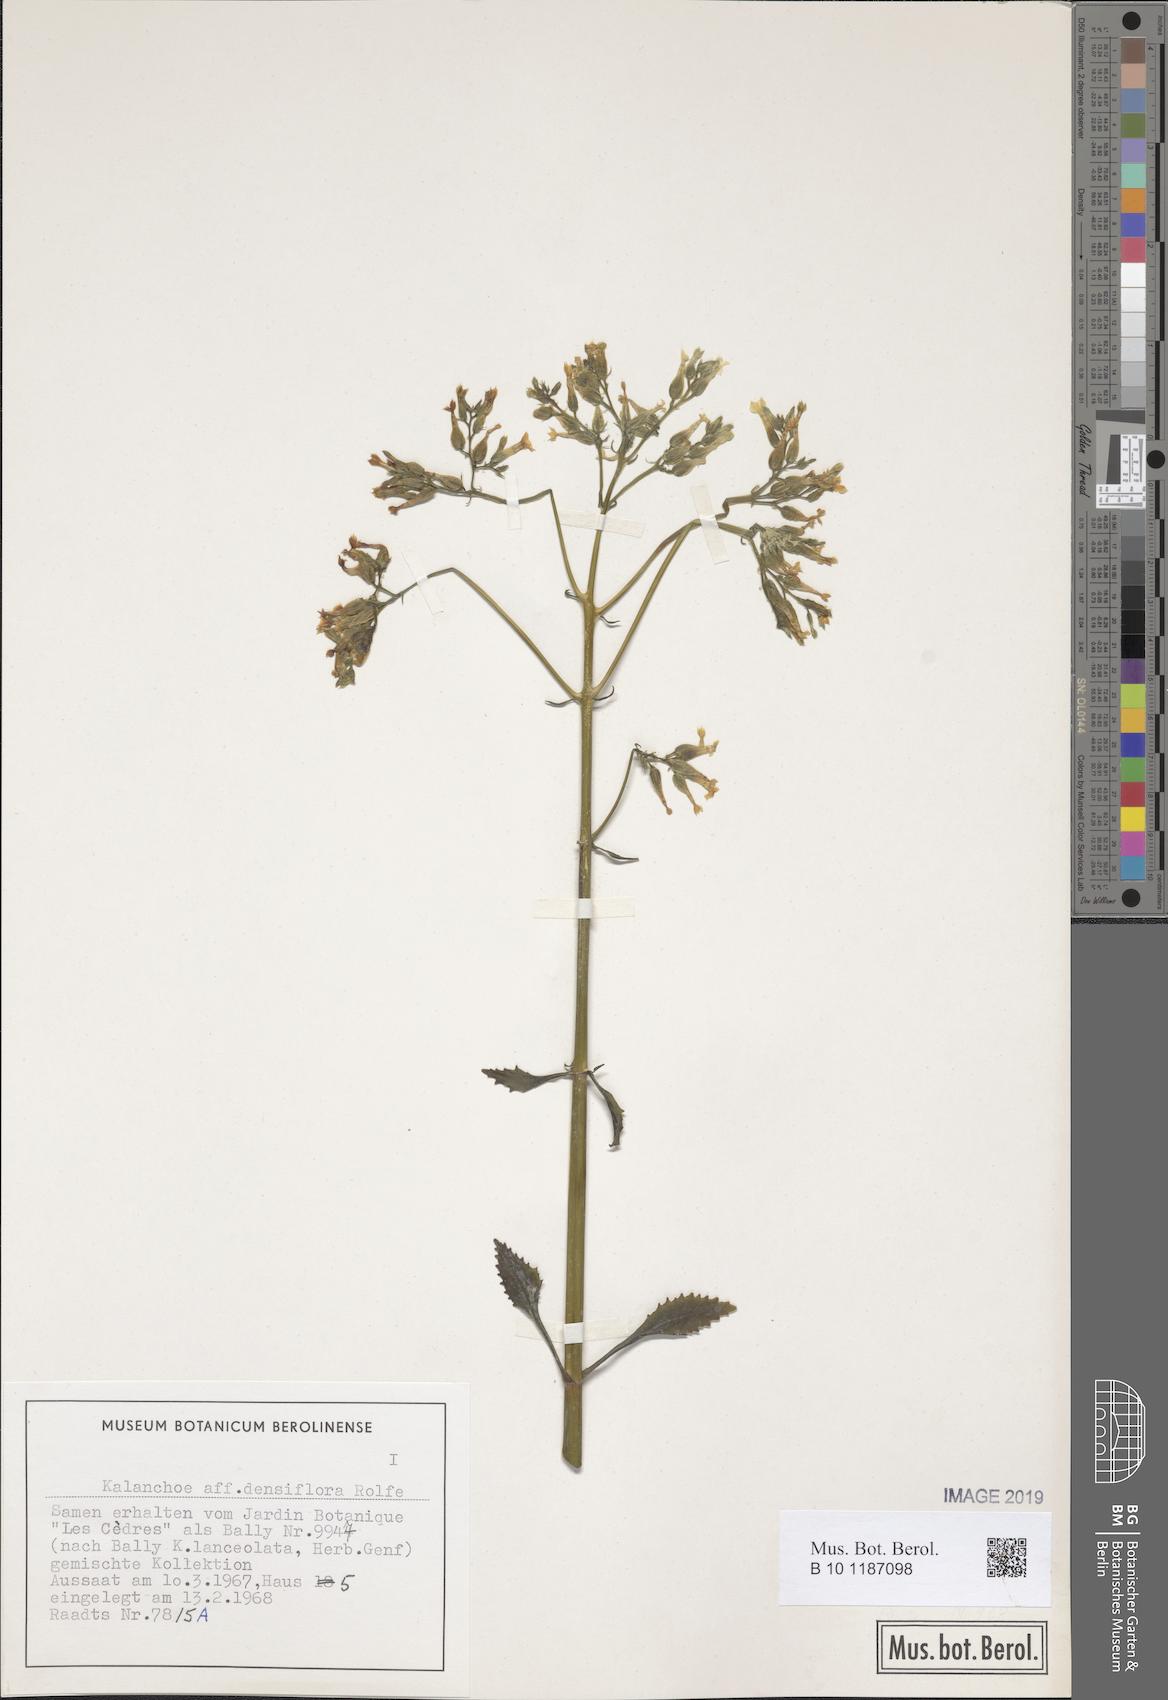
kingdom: Plantae
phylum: Tracheophyta
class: Magnoliopsida
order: Saxifragales
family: Crassulaceae
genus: Kalanchoe
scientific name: Kalanchoe densiflora
